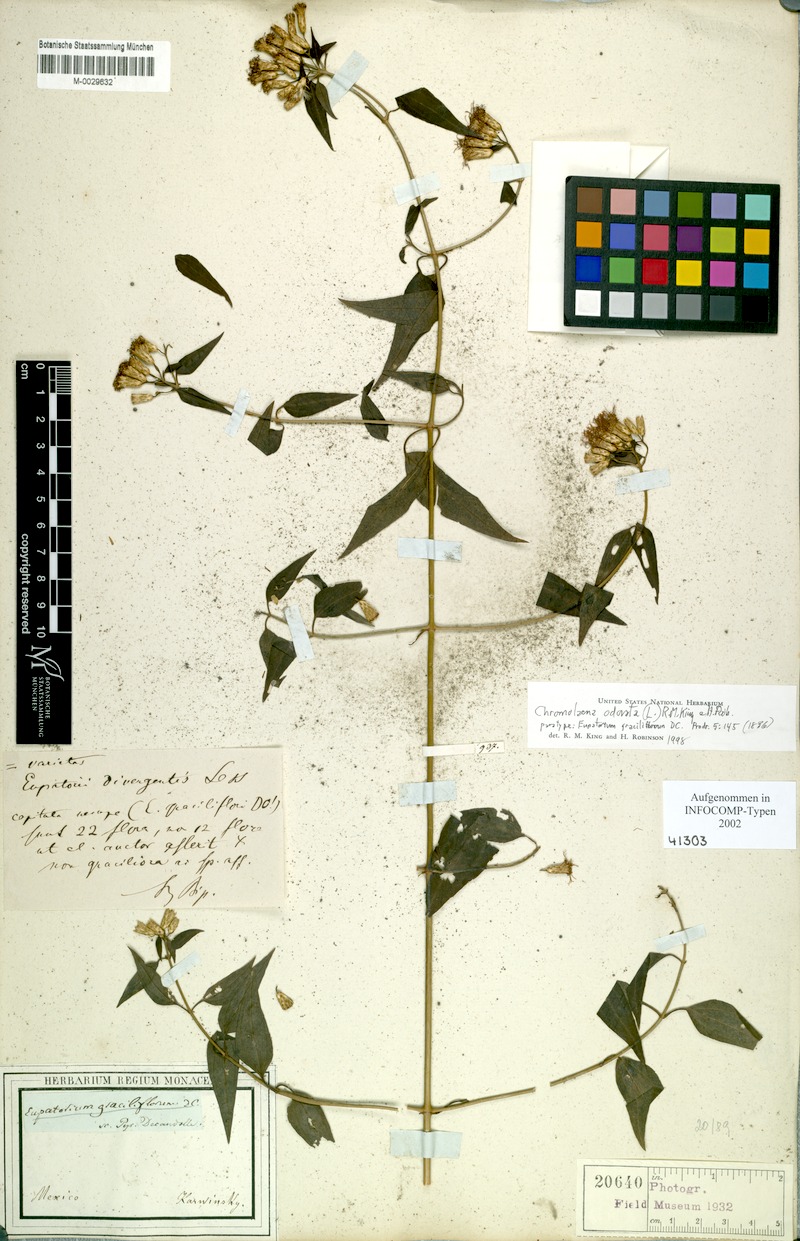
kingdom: Plantae
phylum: Tracheophyta
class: Magnoliopsida
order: Asterales
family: Asteraceae
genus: Chromolaena
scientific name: Chromolaena odorata
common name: Siamweed
